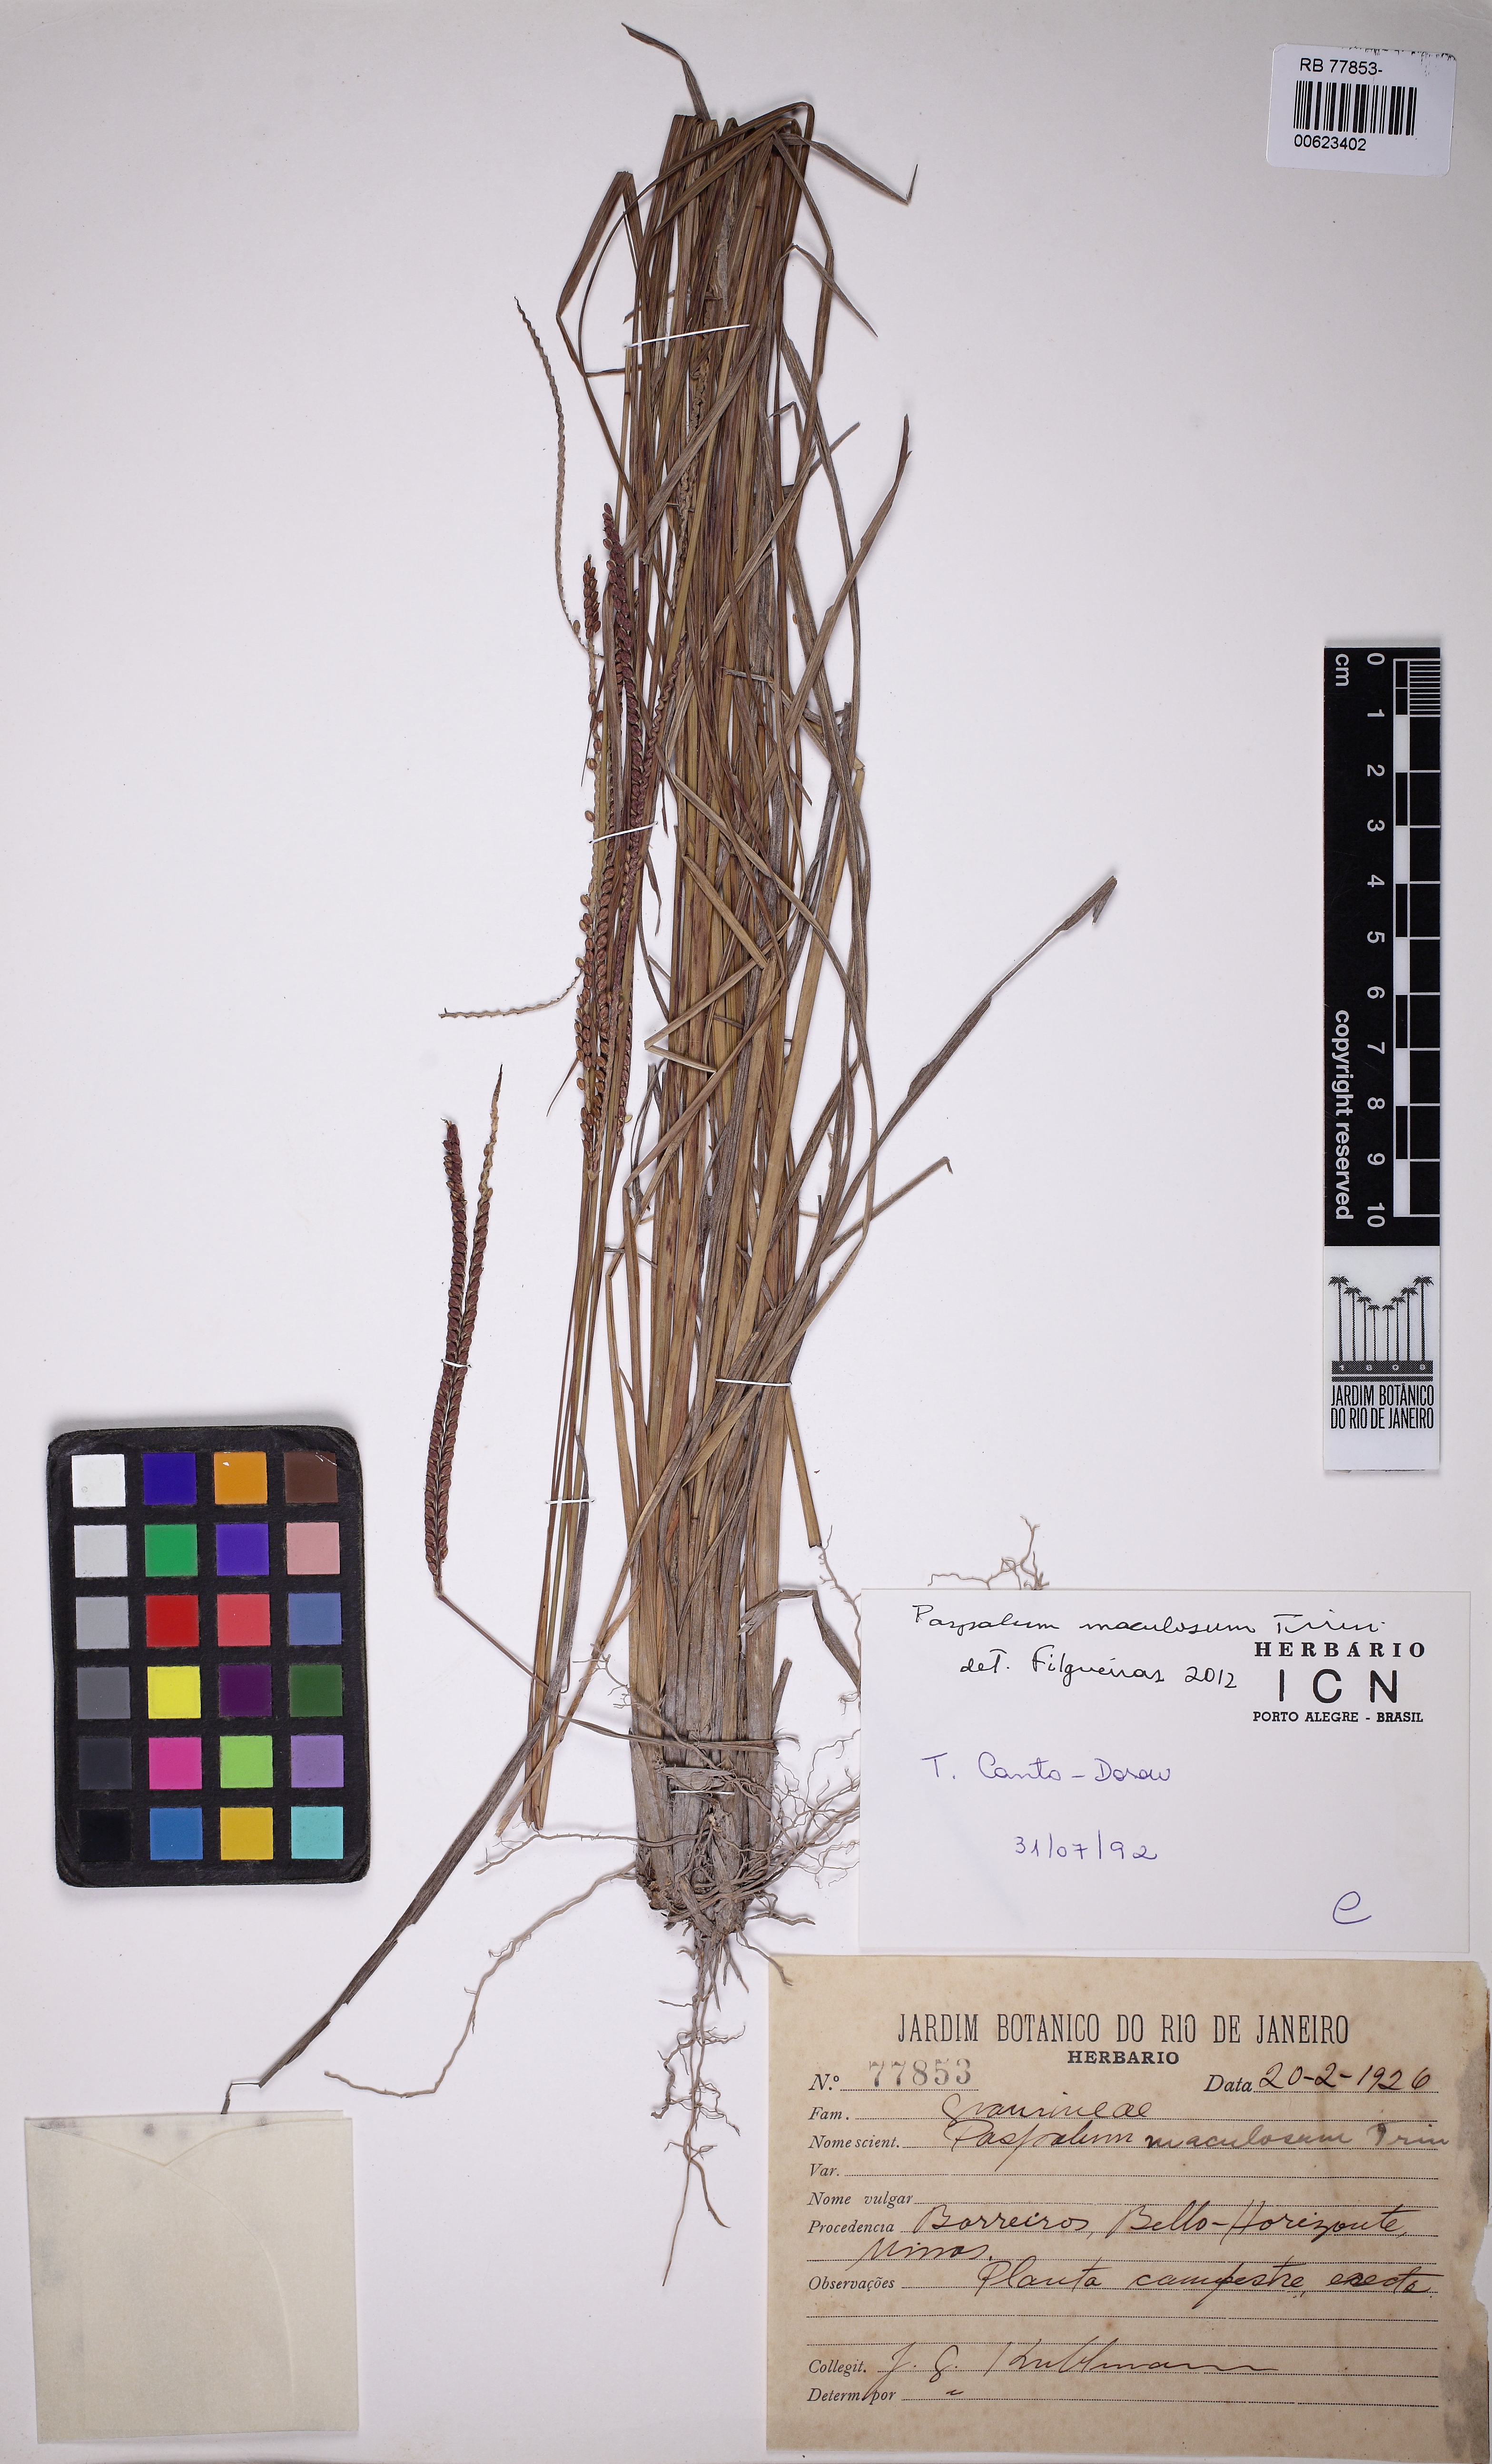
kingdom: Plantae
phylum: Tracheophyta
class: Liliopsida
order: Poales
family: Poaceae
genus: Paspalum
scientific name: Paspalum maculosum
